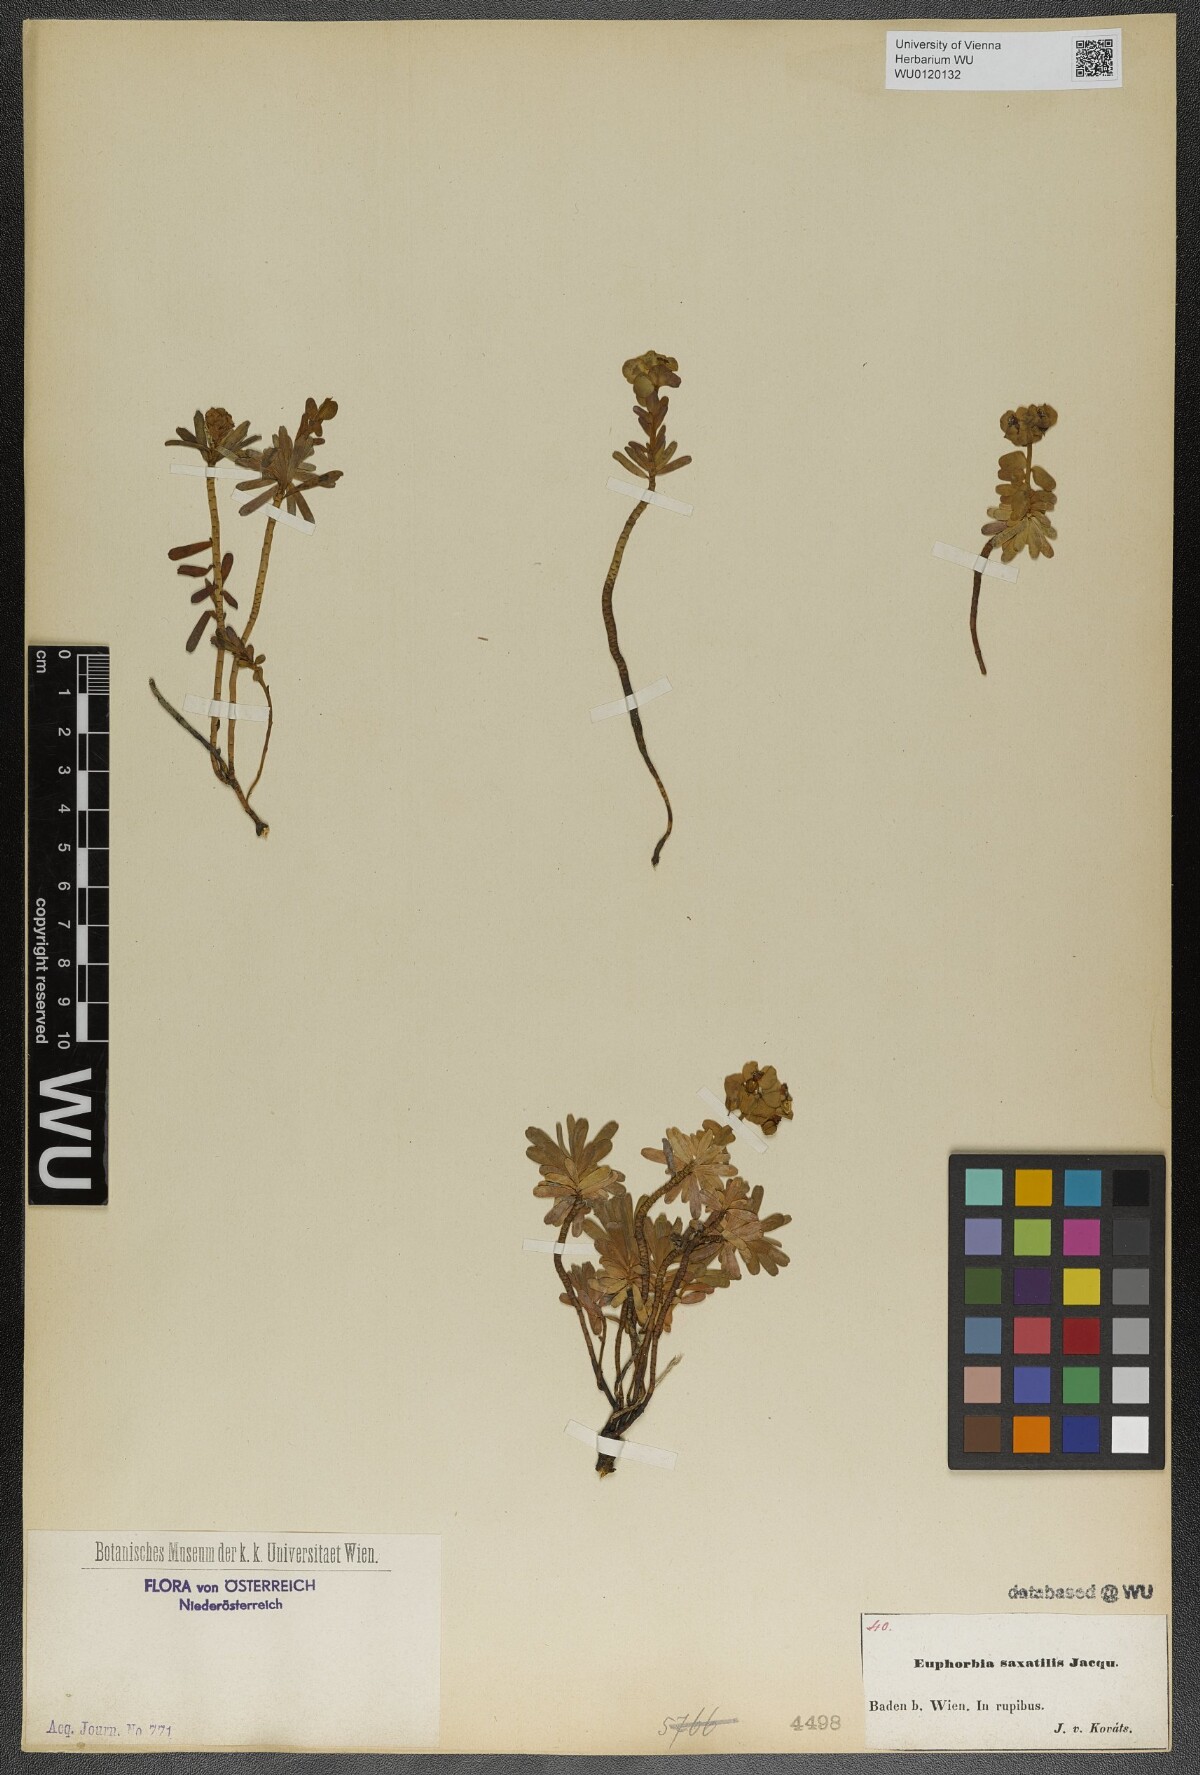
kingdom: Plantae
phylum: Tracheophyta
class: Magnoliopsida
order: Malpighiales
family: Euphorbiaceae
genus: Euphorbia
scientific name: Euphorbia saxatilis
